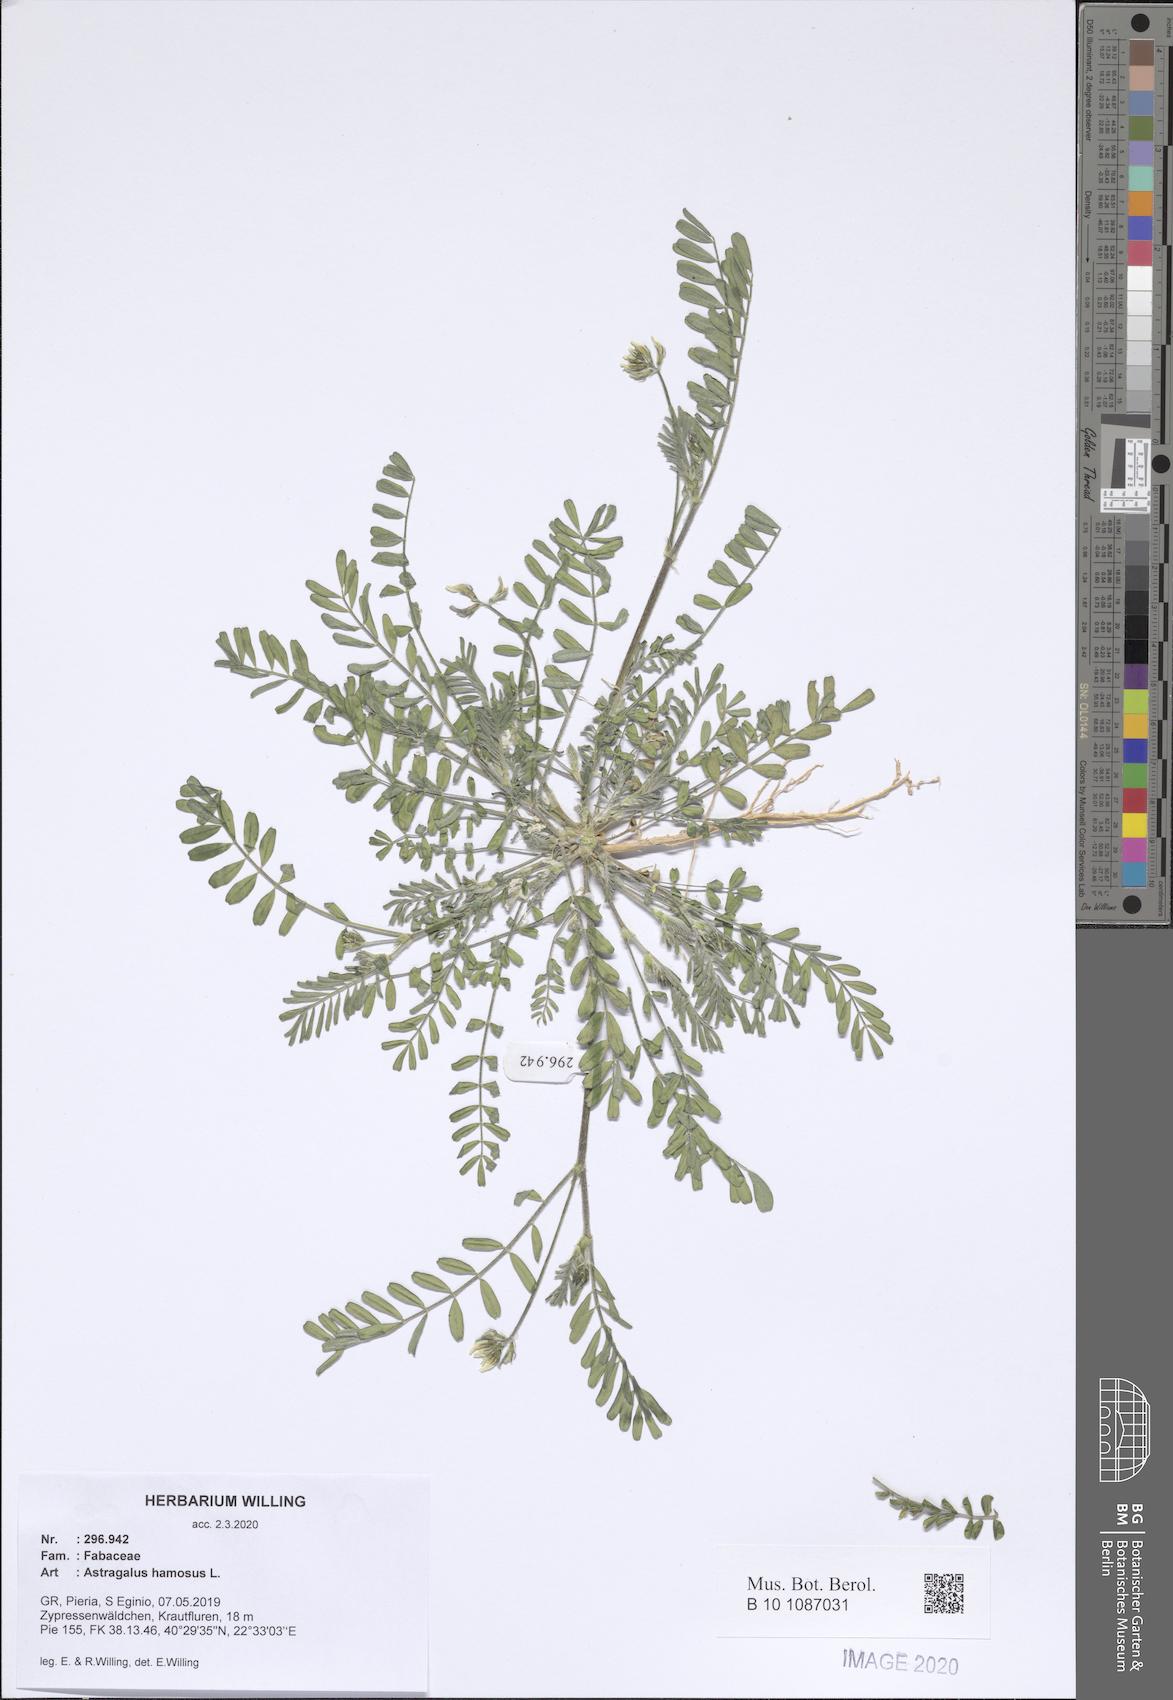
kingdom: Plantae
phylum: Tracheophyta
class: Magnoliopsida
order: Fabales
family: Fabaceae
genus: Astragalus
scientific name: Astragalus hamosus
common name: European milkvetch
